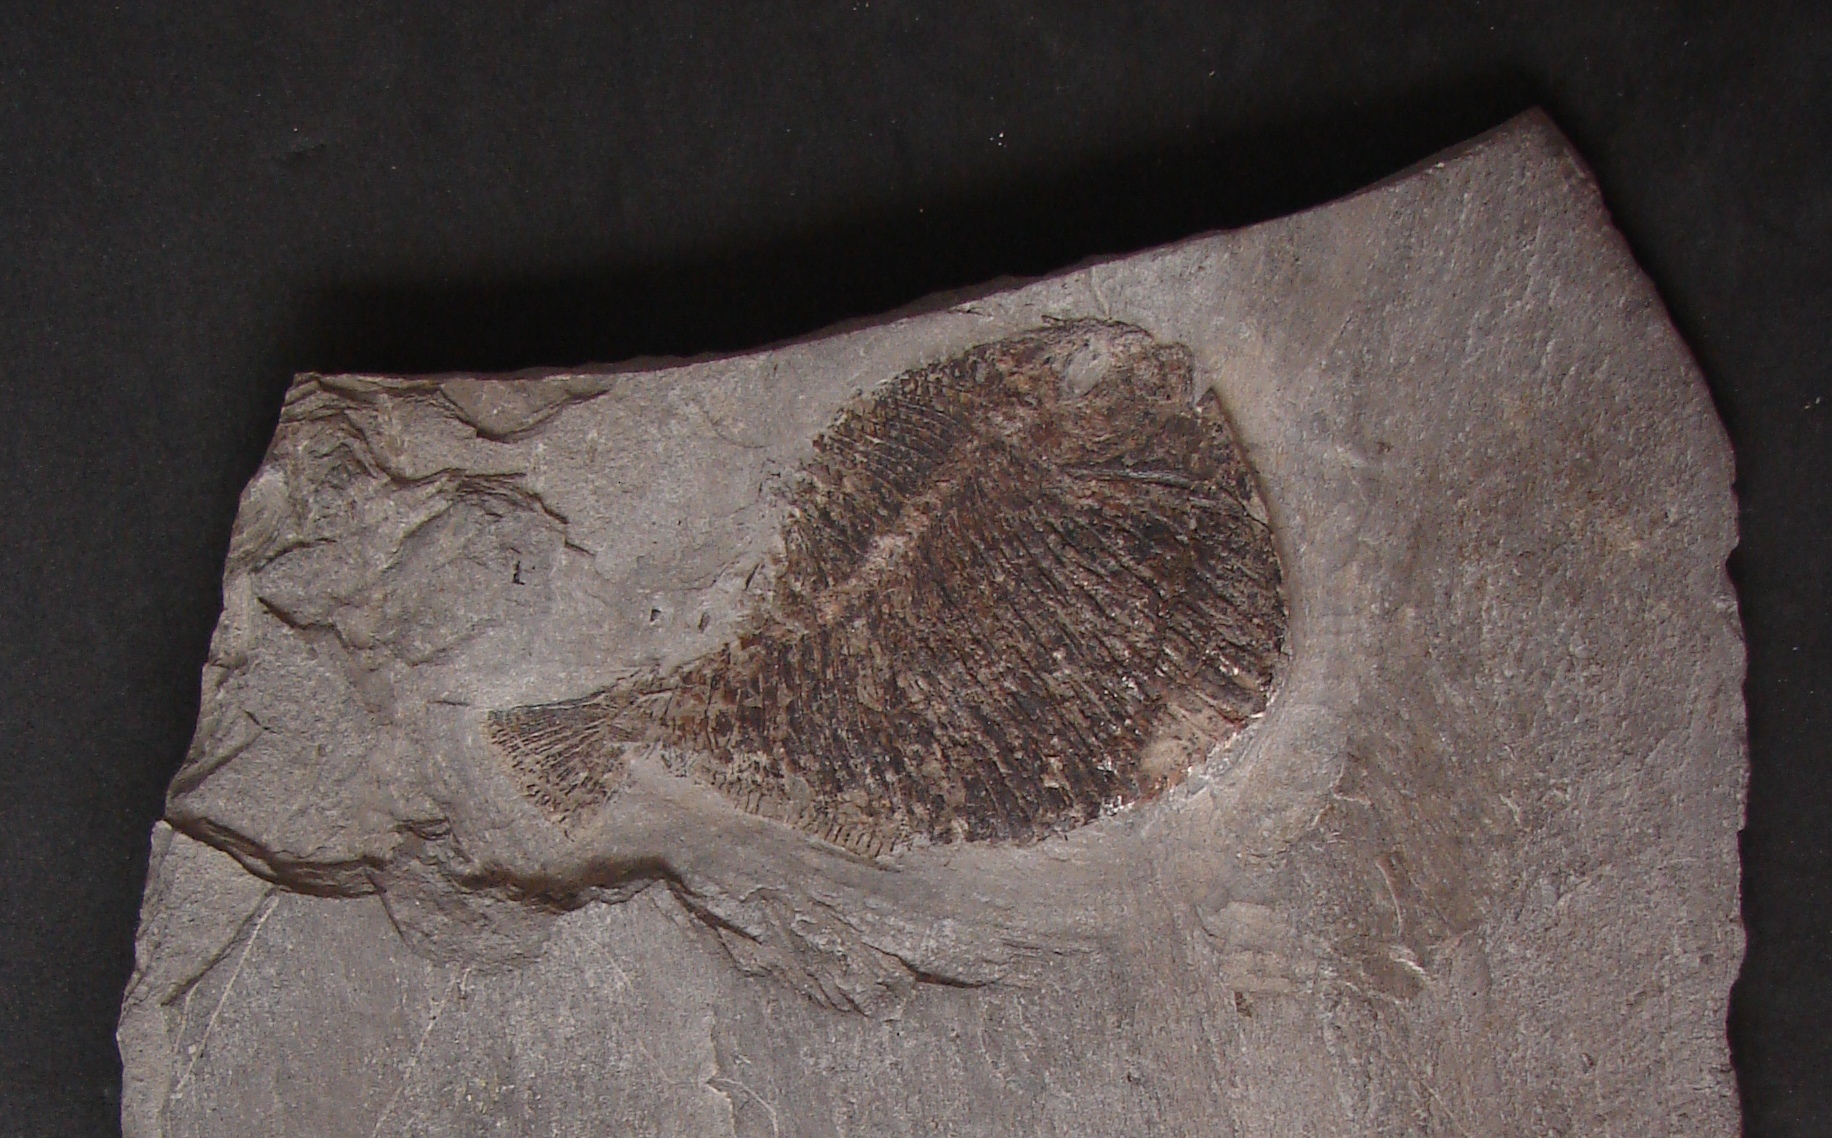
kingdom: Animalia
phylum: Chordata
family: Dapediidae
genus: Tetragonolepis
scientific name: Tetragonolepis semicinctus
